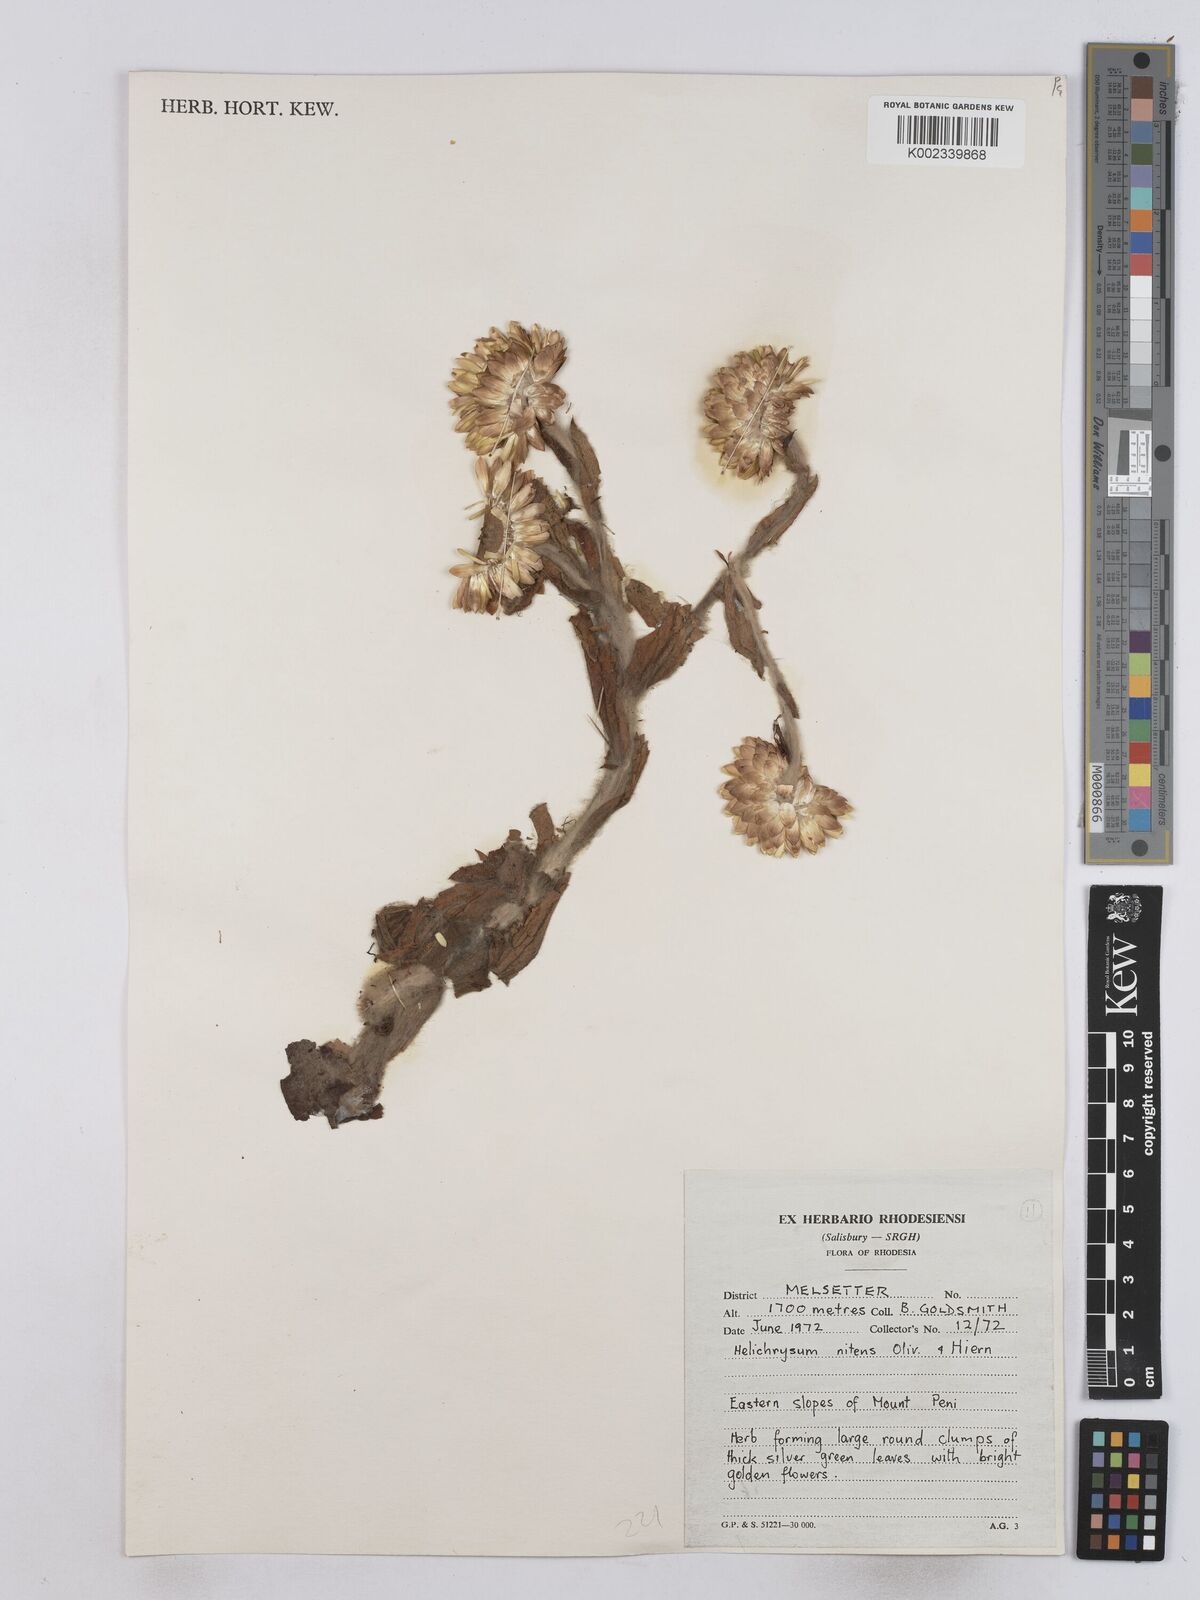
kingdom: Plantae
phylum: Tracheophyta
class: Magnoliopsida
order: Asterales
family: Asteraceae
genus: Helichrysum
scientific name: Helichrysum nitens
